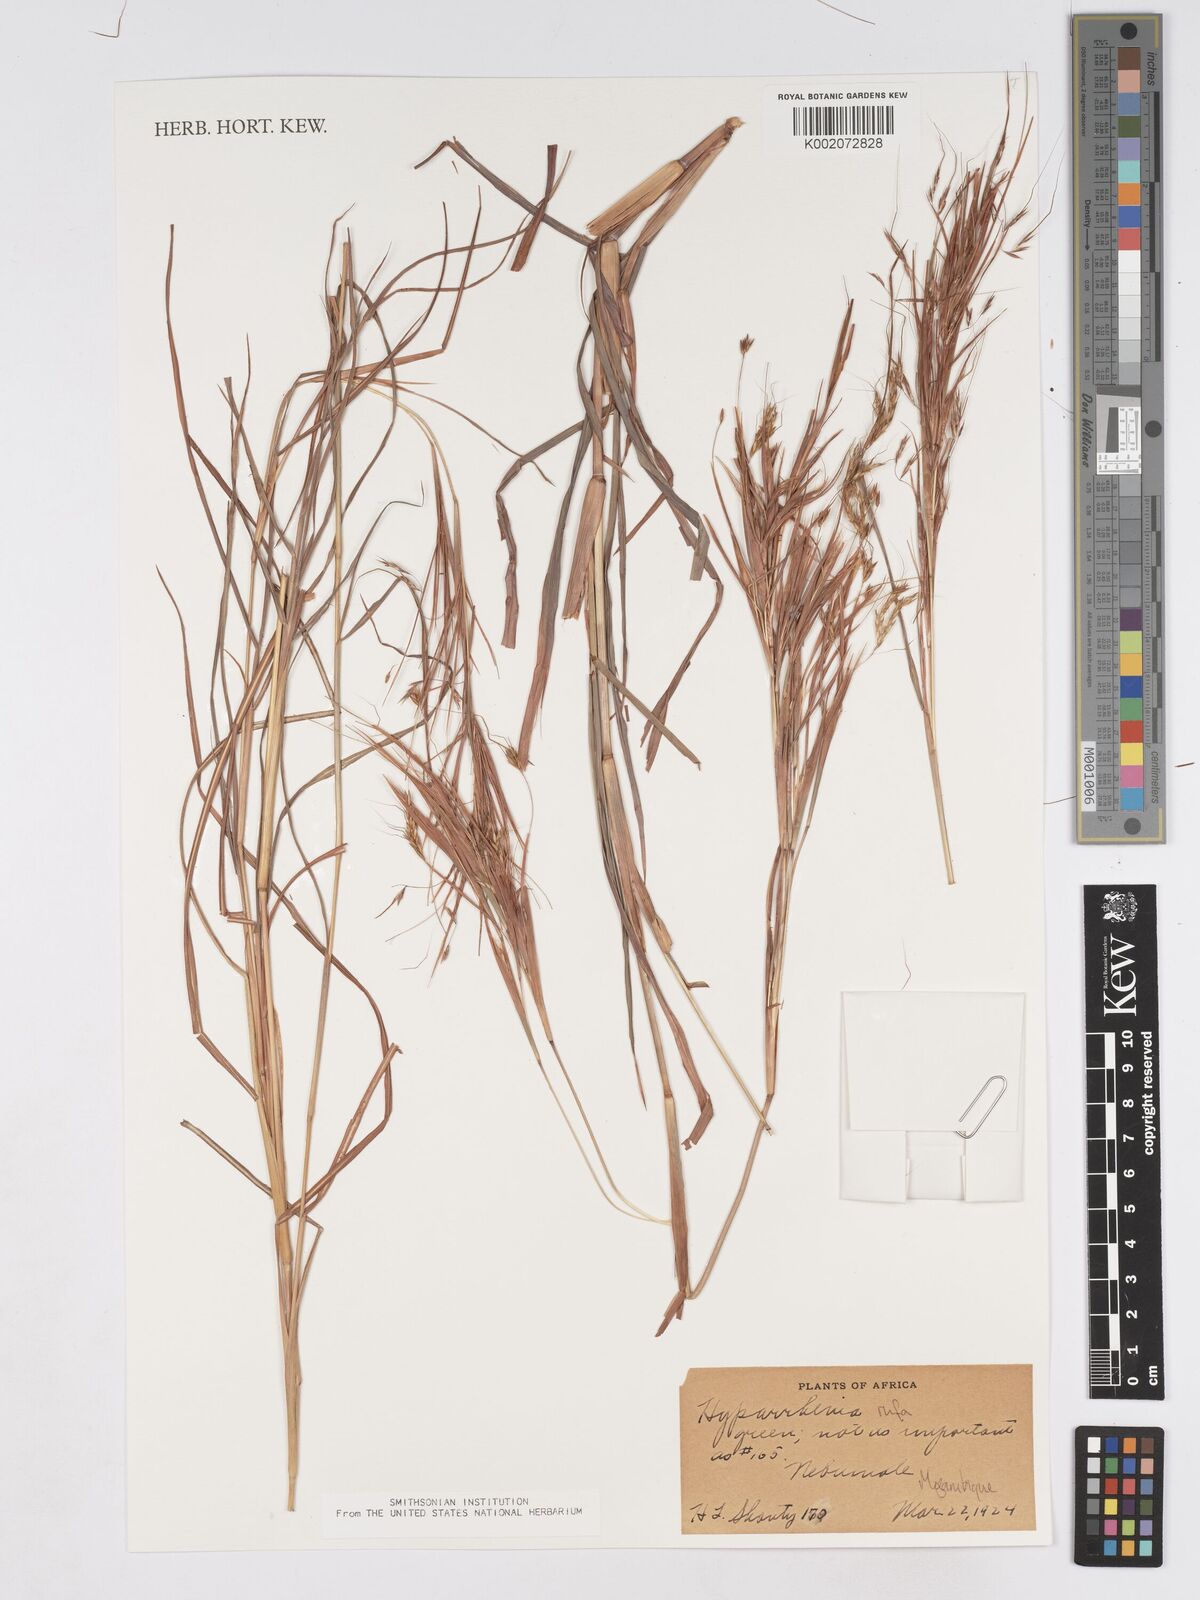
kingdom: Plantae
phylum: Tracheophyta
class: Liliopsida
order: Poales
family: Poaceae
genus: Hyparrhenia
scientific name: Hyparrhenia rufa
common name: Jaraguagrass
